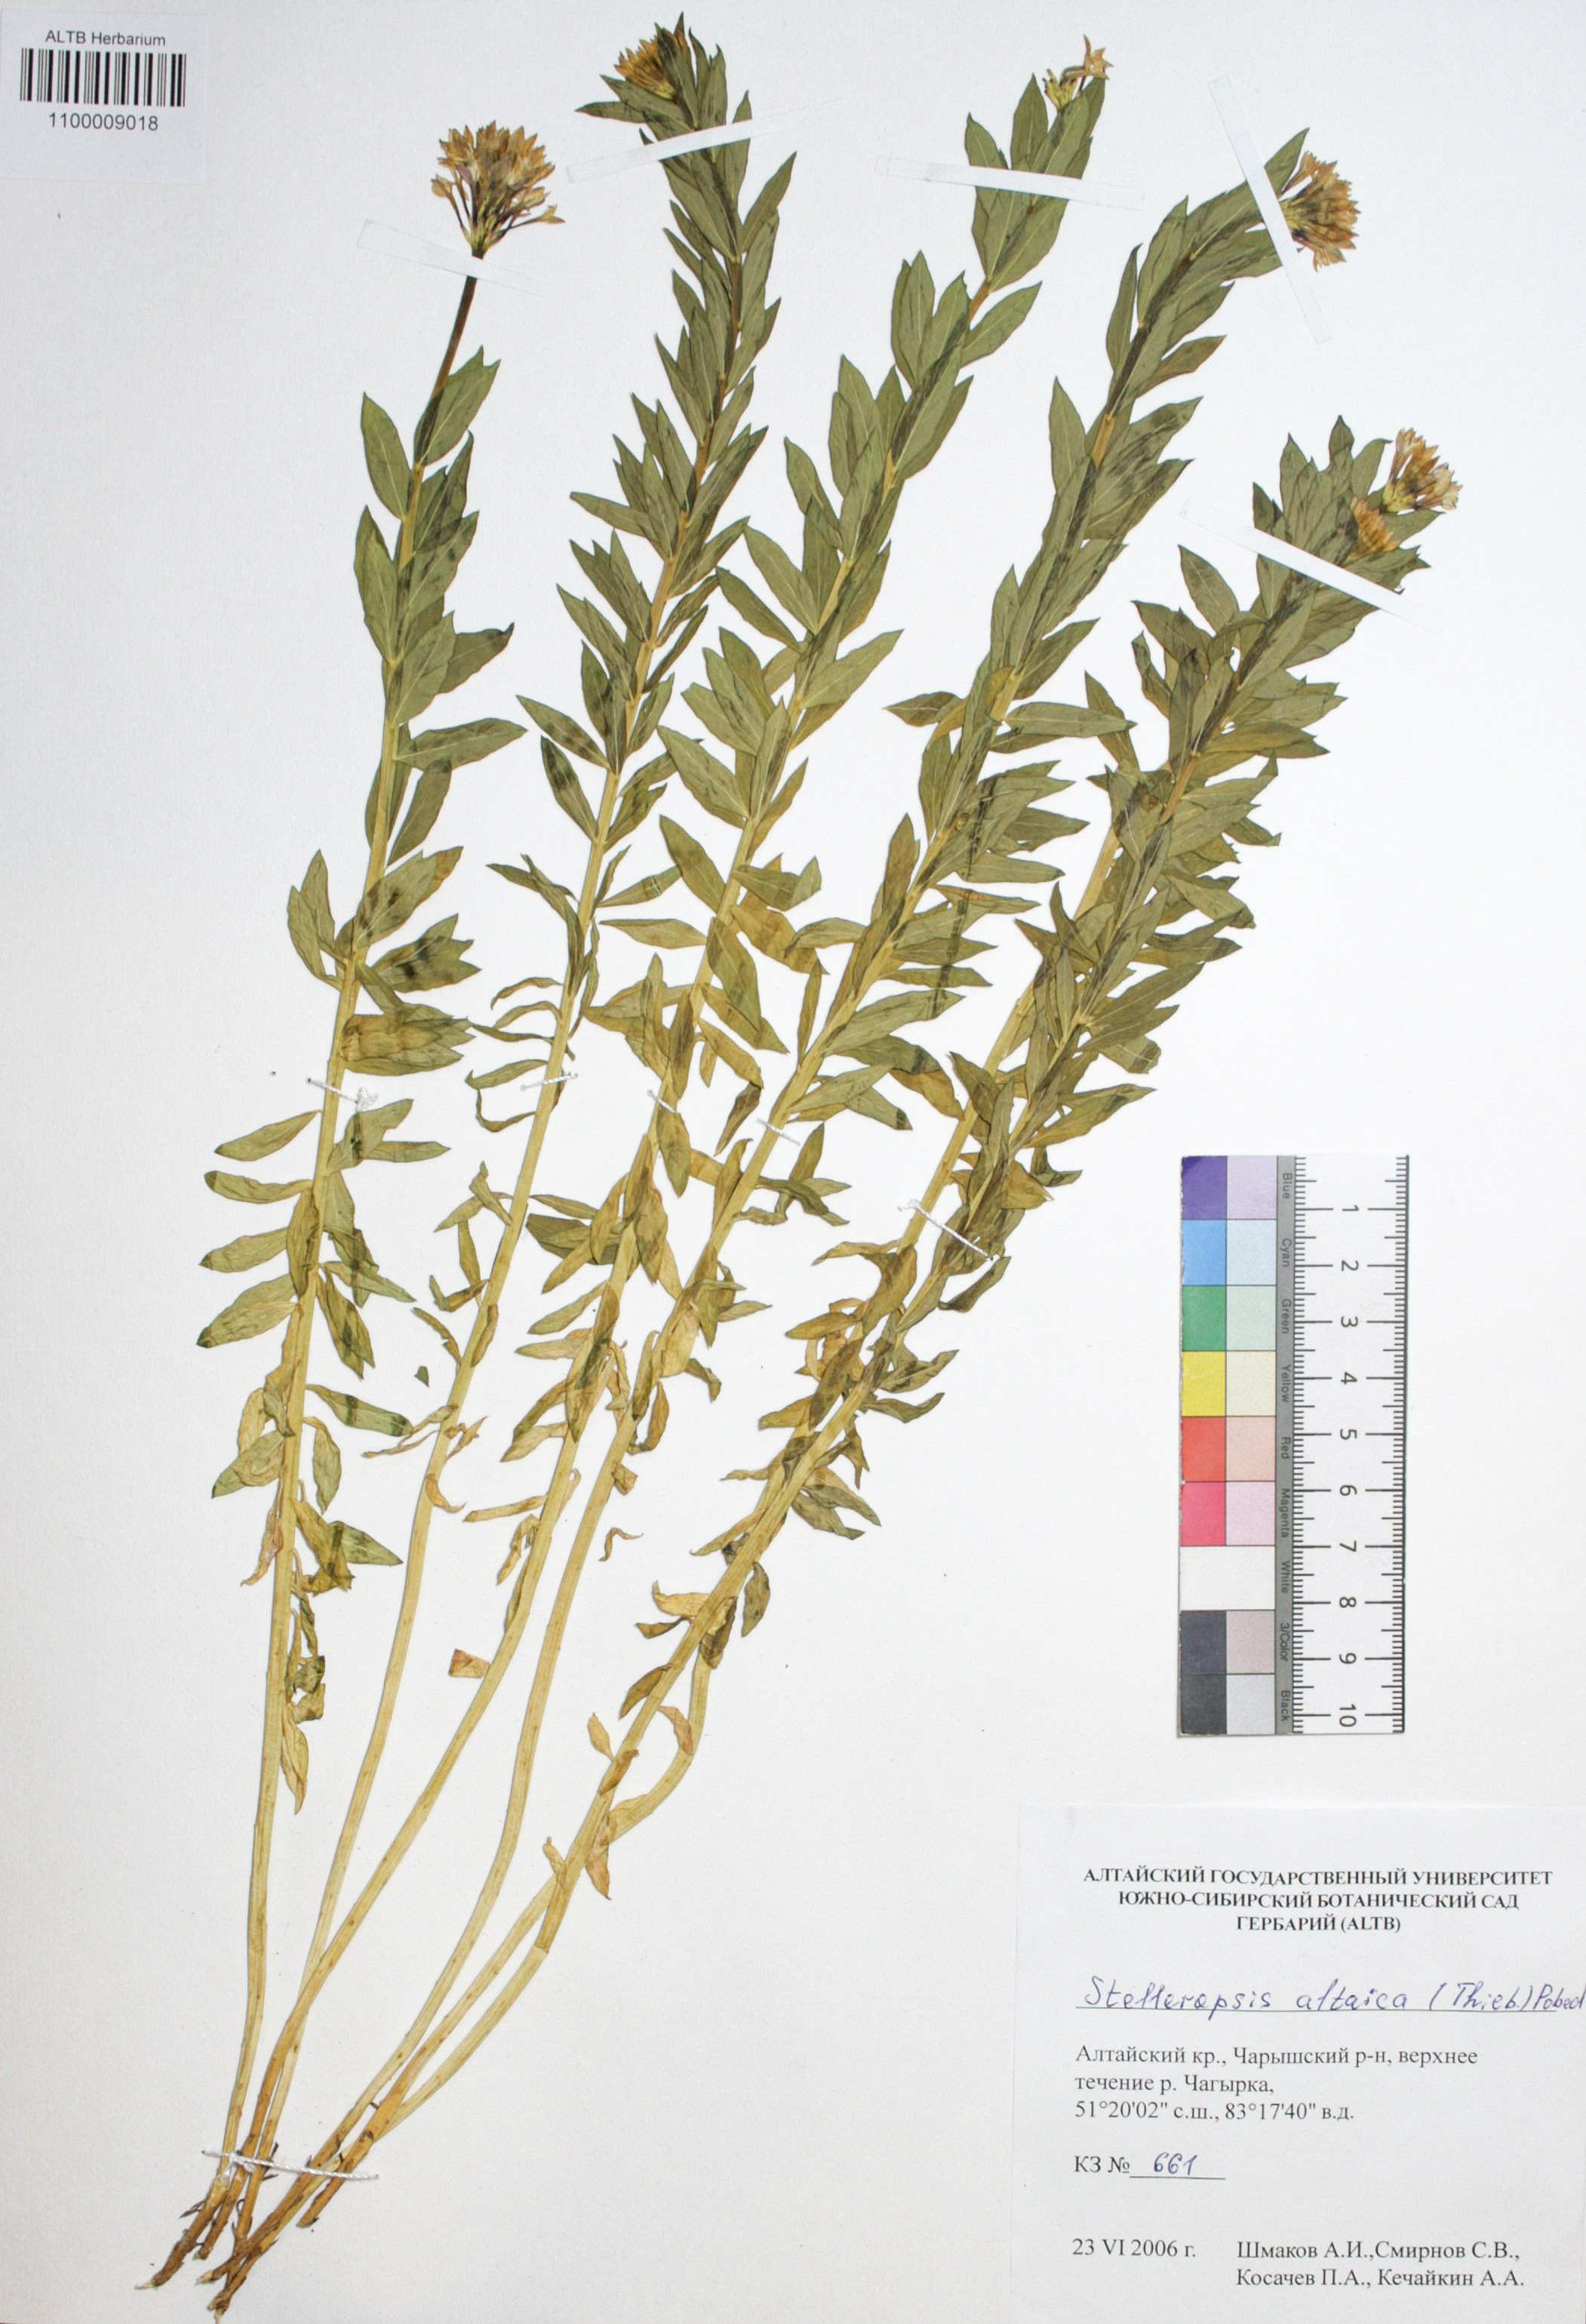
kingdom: Plantae
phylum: Tracheophyta
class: Magnoliopsida
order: Malvales
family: Thymelaeaceae
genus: Diarthron
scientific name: Diarthron altaicum
